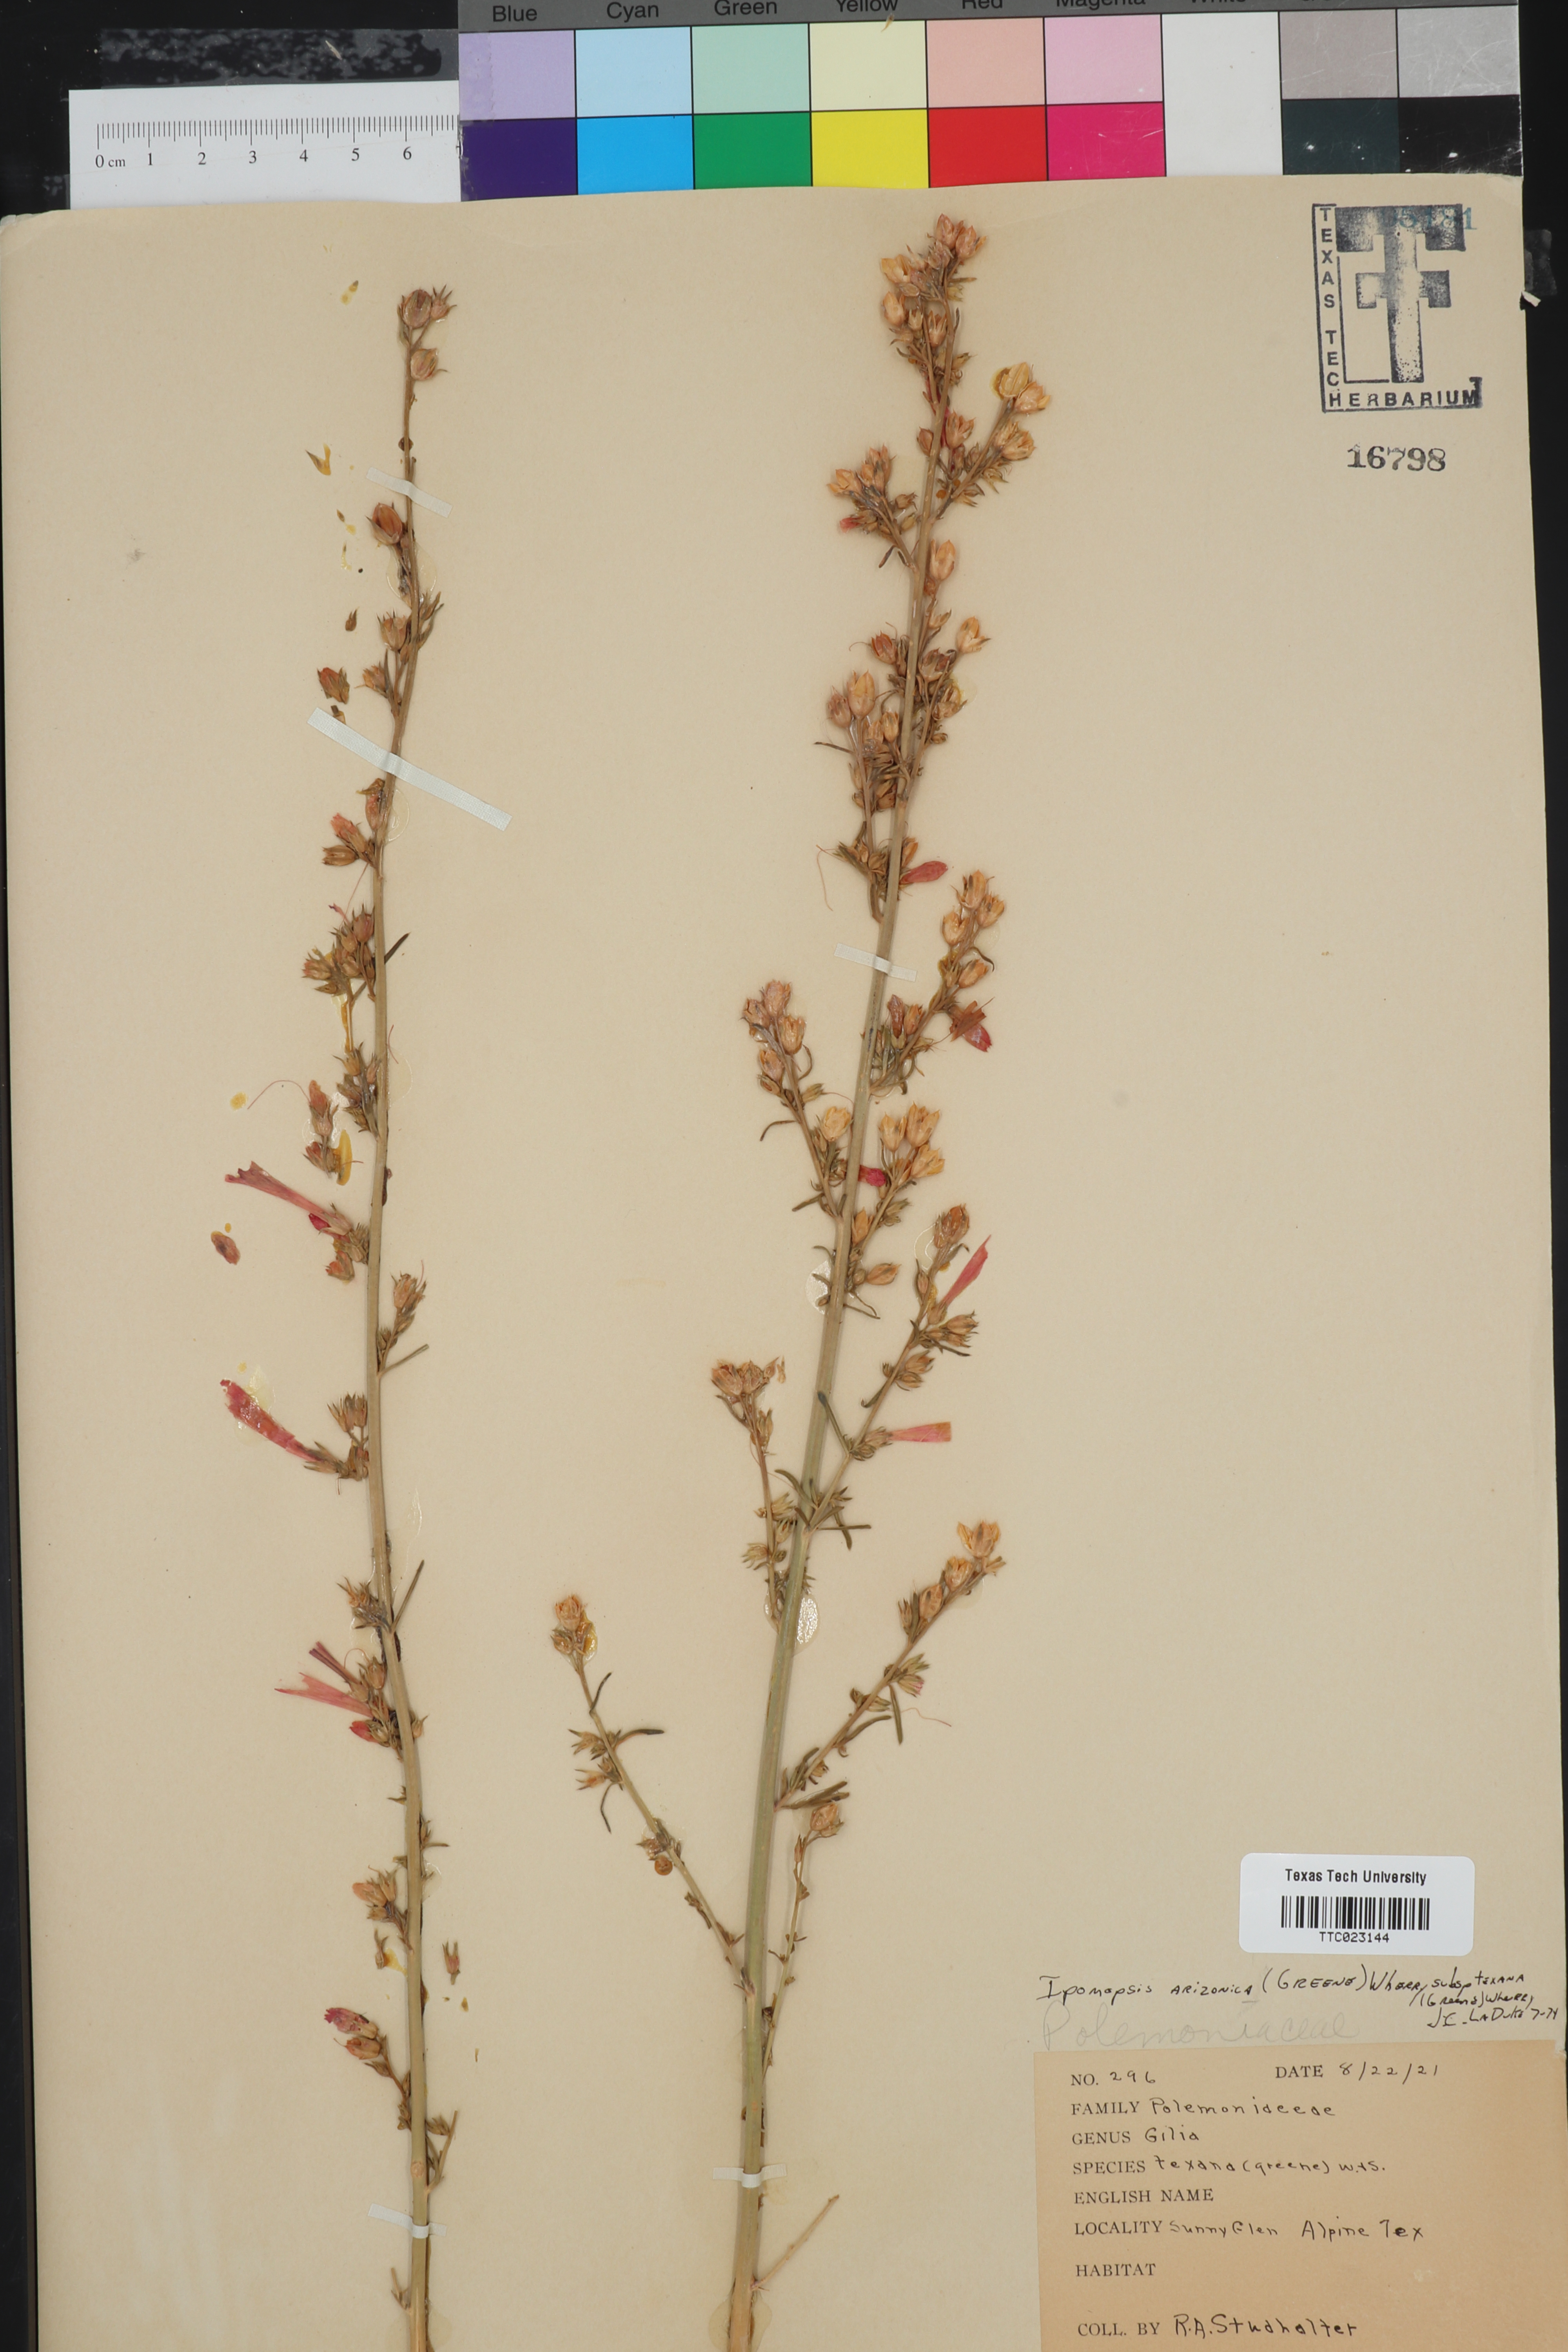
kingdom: Plantae
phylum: Tracheophyta
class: Magnoliopsida
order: Ericales
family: Polemoniaceae
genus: Ipomopsis
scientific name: Ipomopsis arizonica
